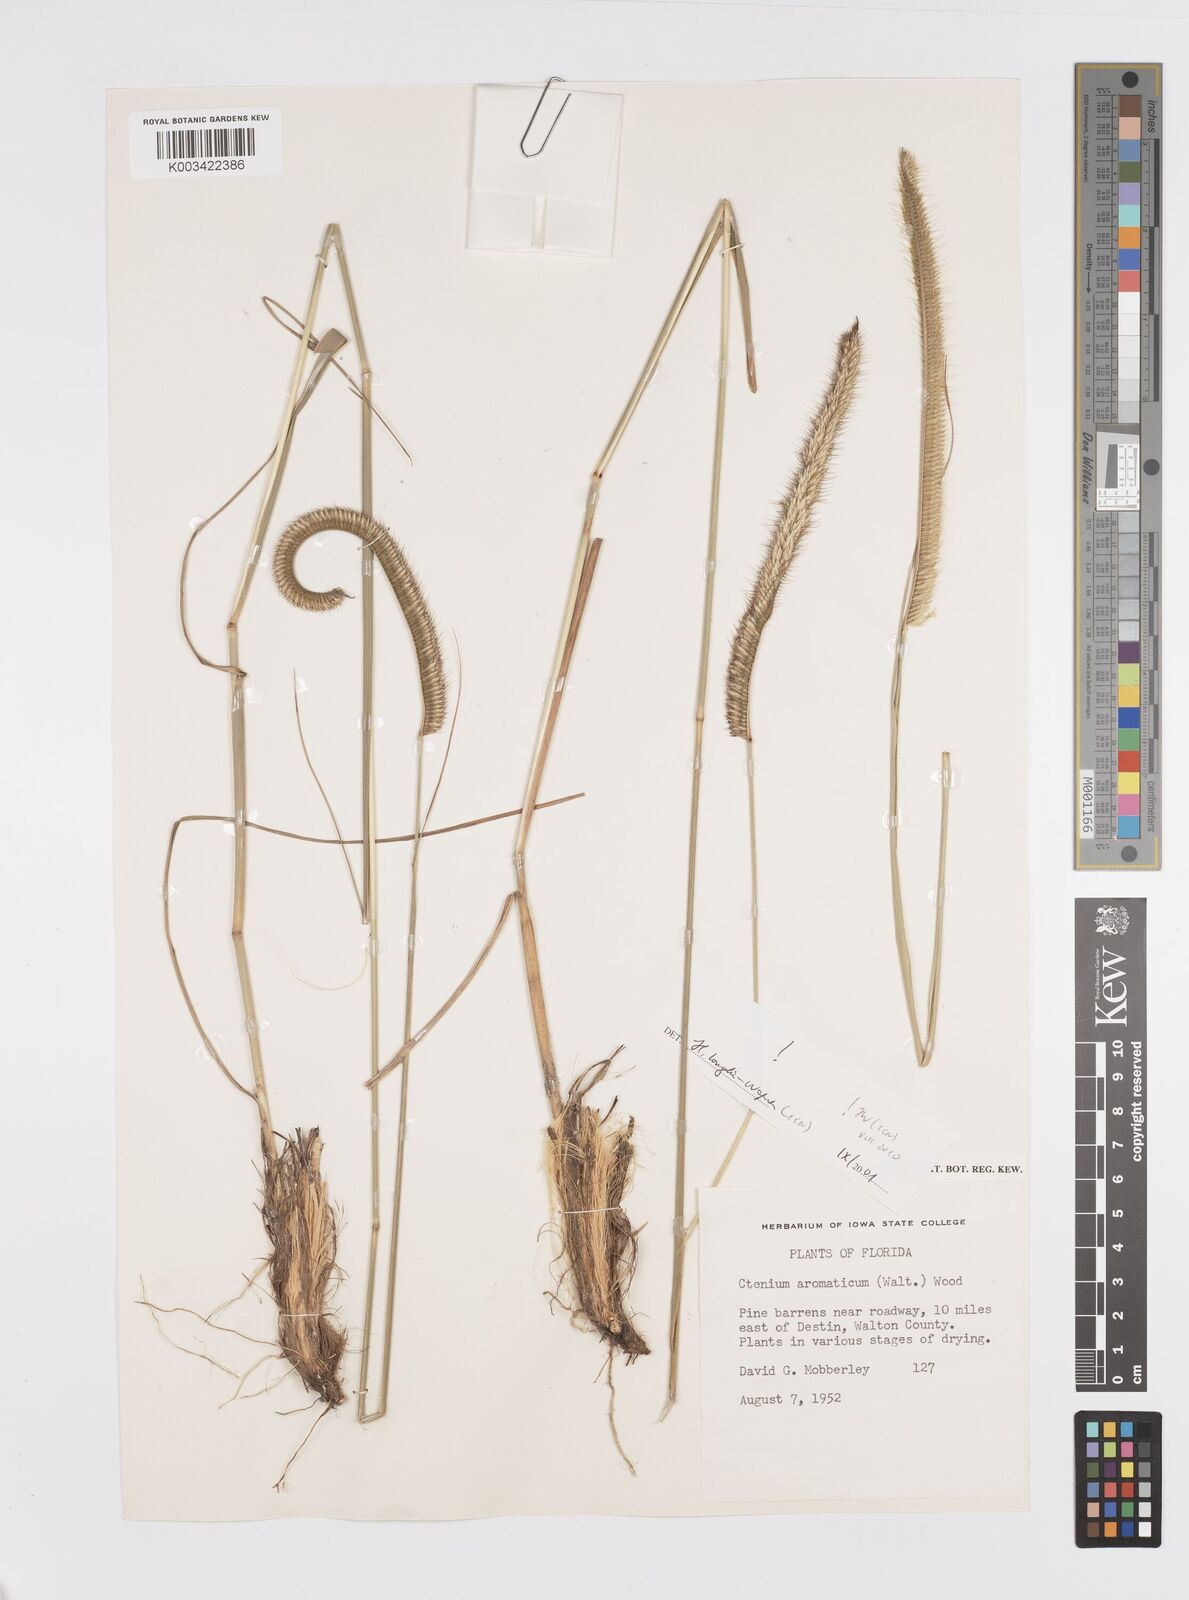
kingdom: Plantae
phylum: Tracheophyta
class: Liliopsida
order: Poales
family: Poaceae
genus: Ctenium
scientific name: Ctenium aromaticum
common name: Toothache grass
